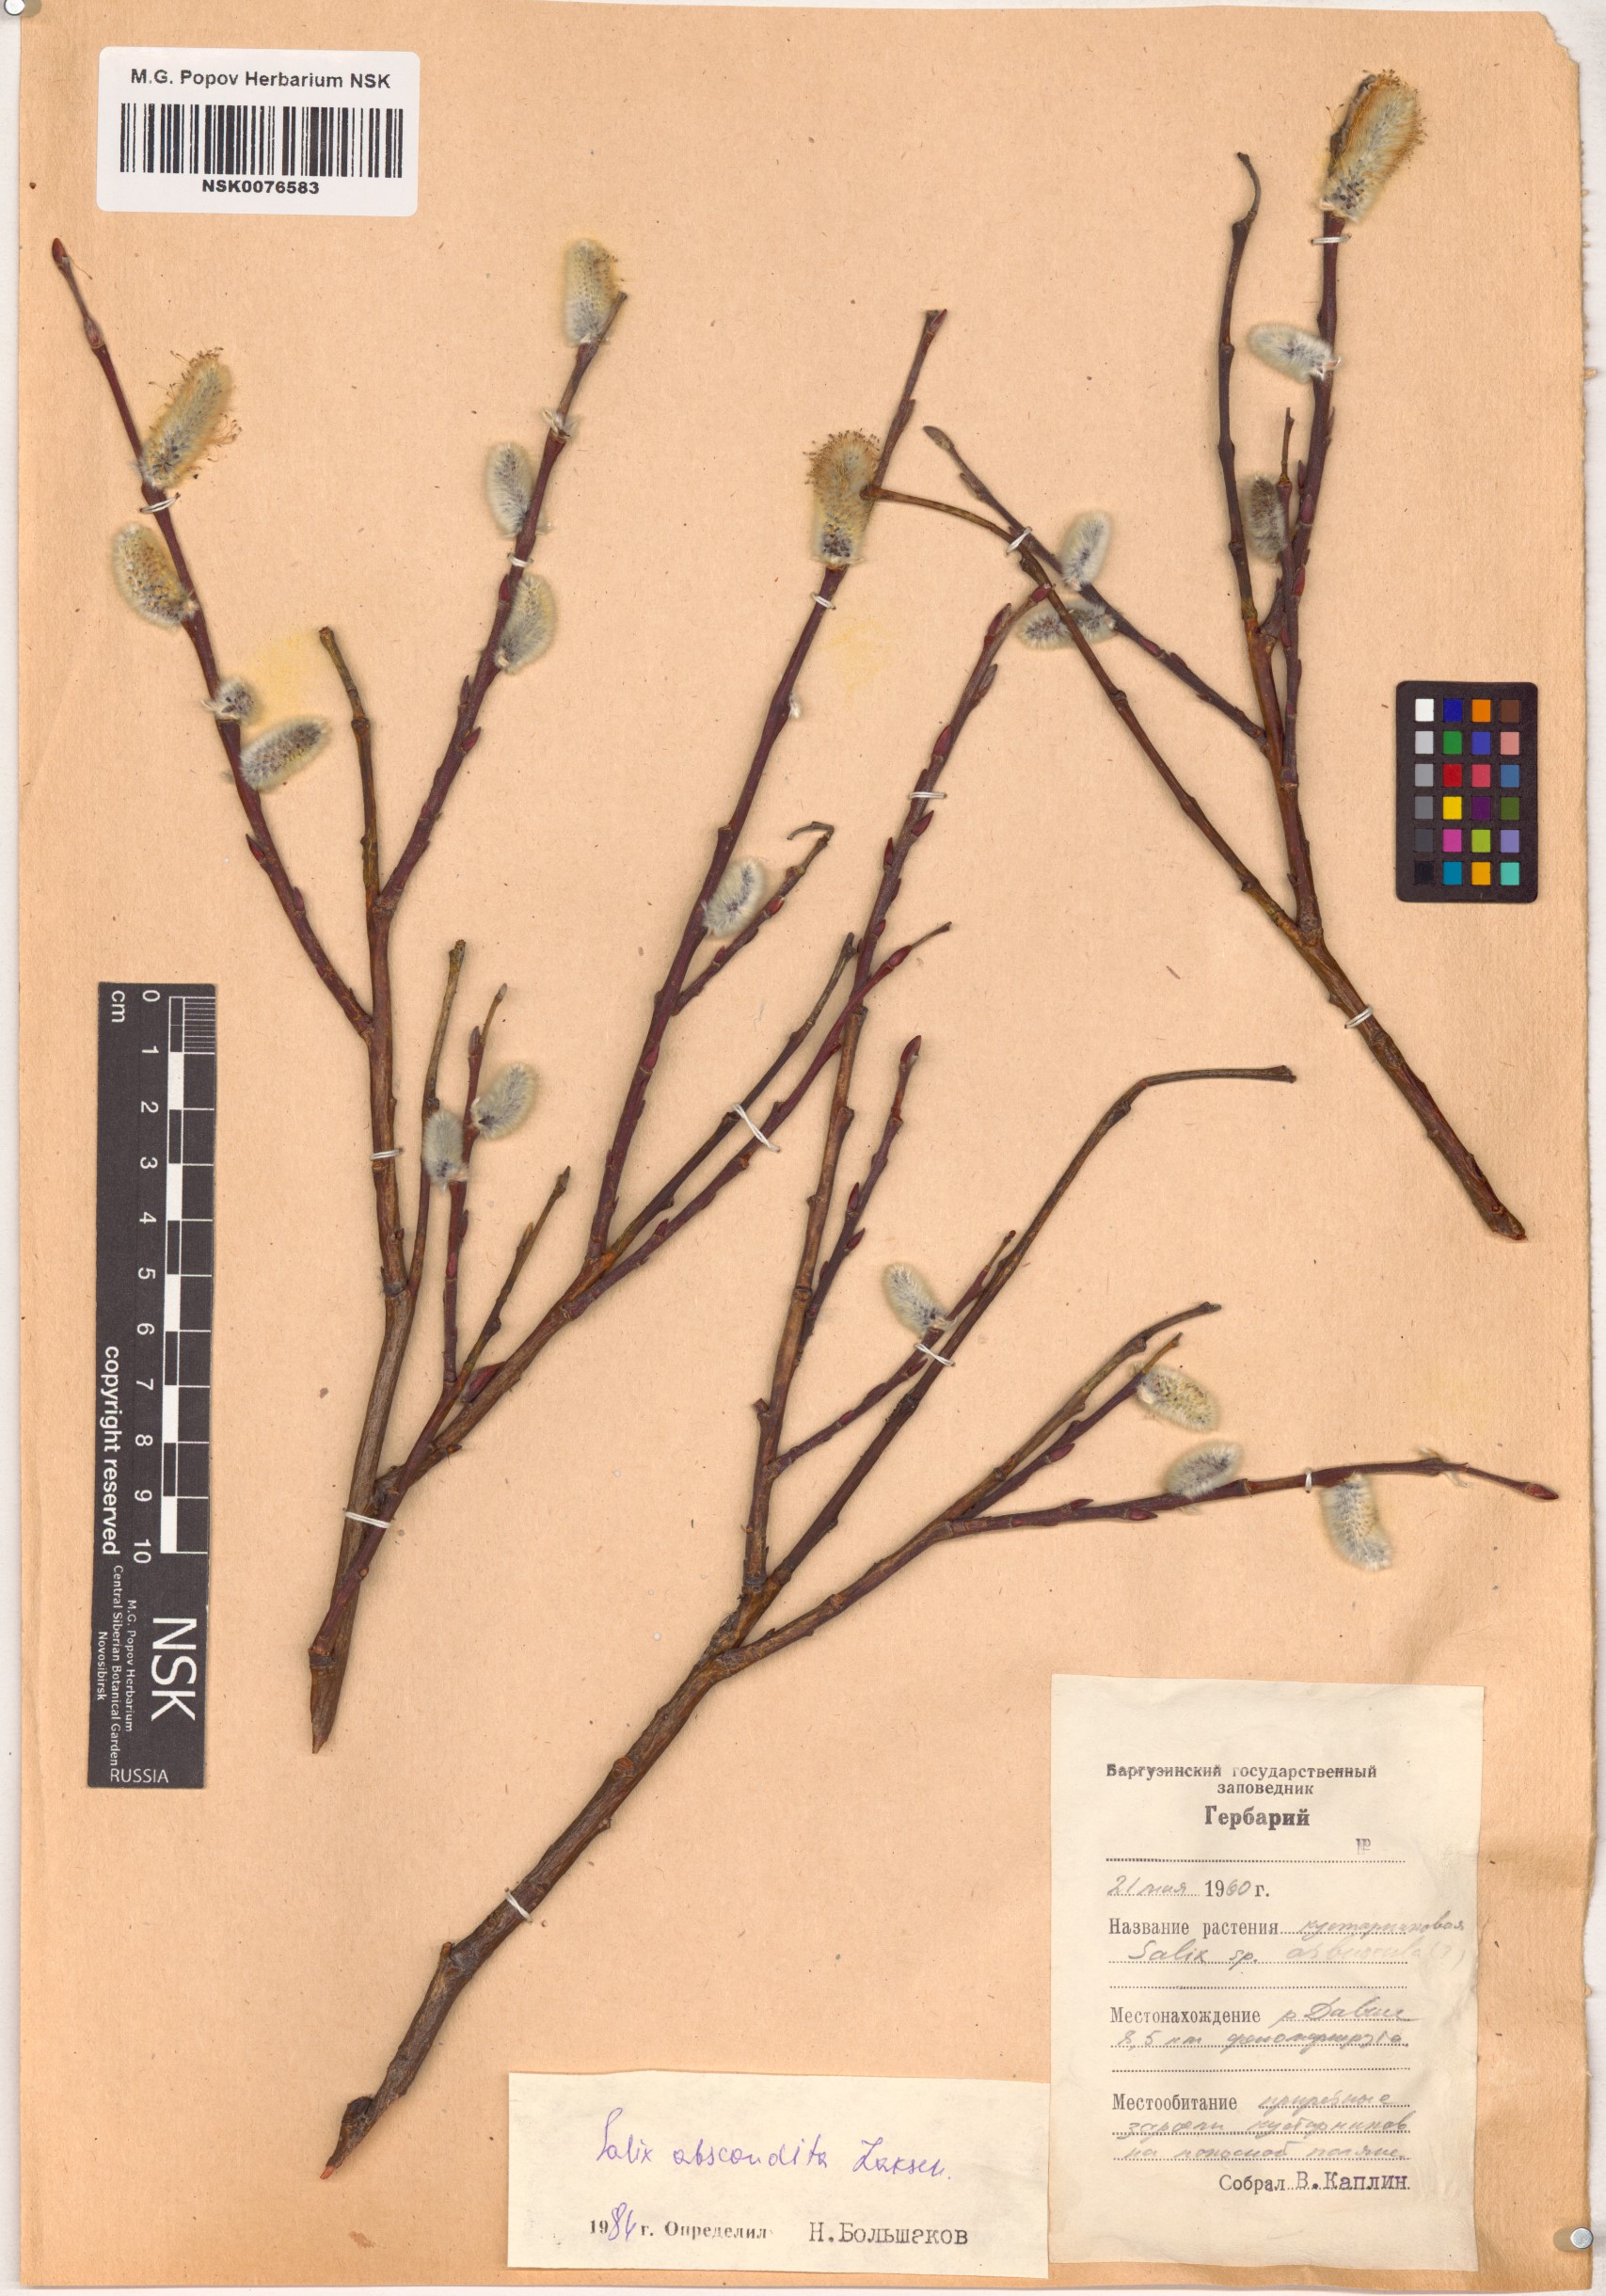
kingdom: Plantae
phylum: Tracheophyta
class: Magnoliopsida
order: Malpighiales
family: Salicaceae
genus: Salix
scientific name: Salix abscondita
